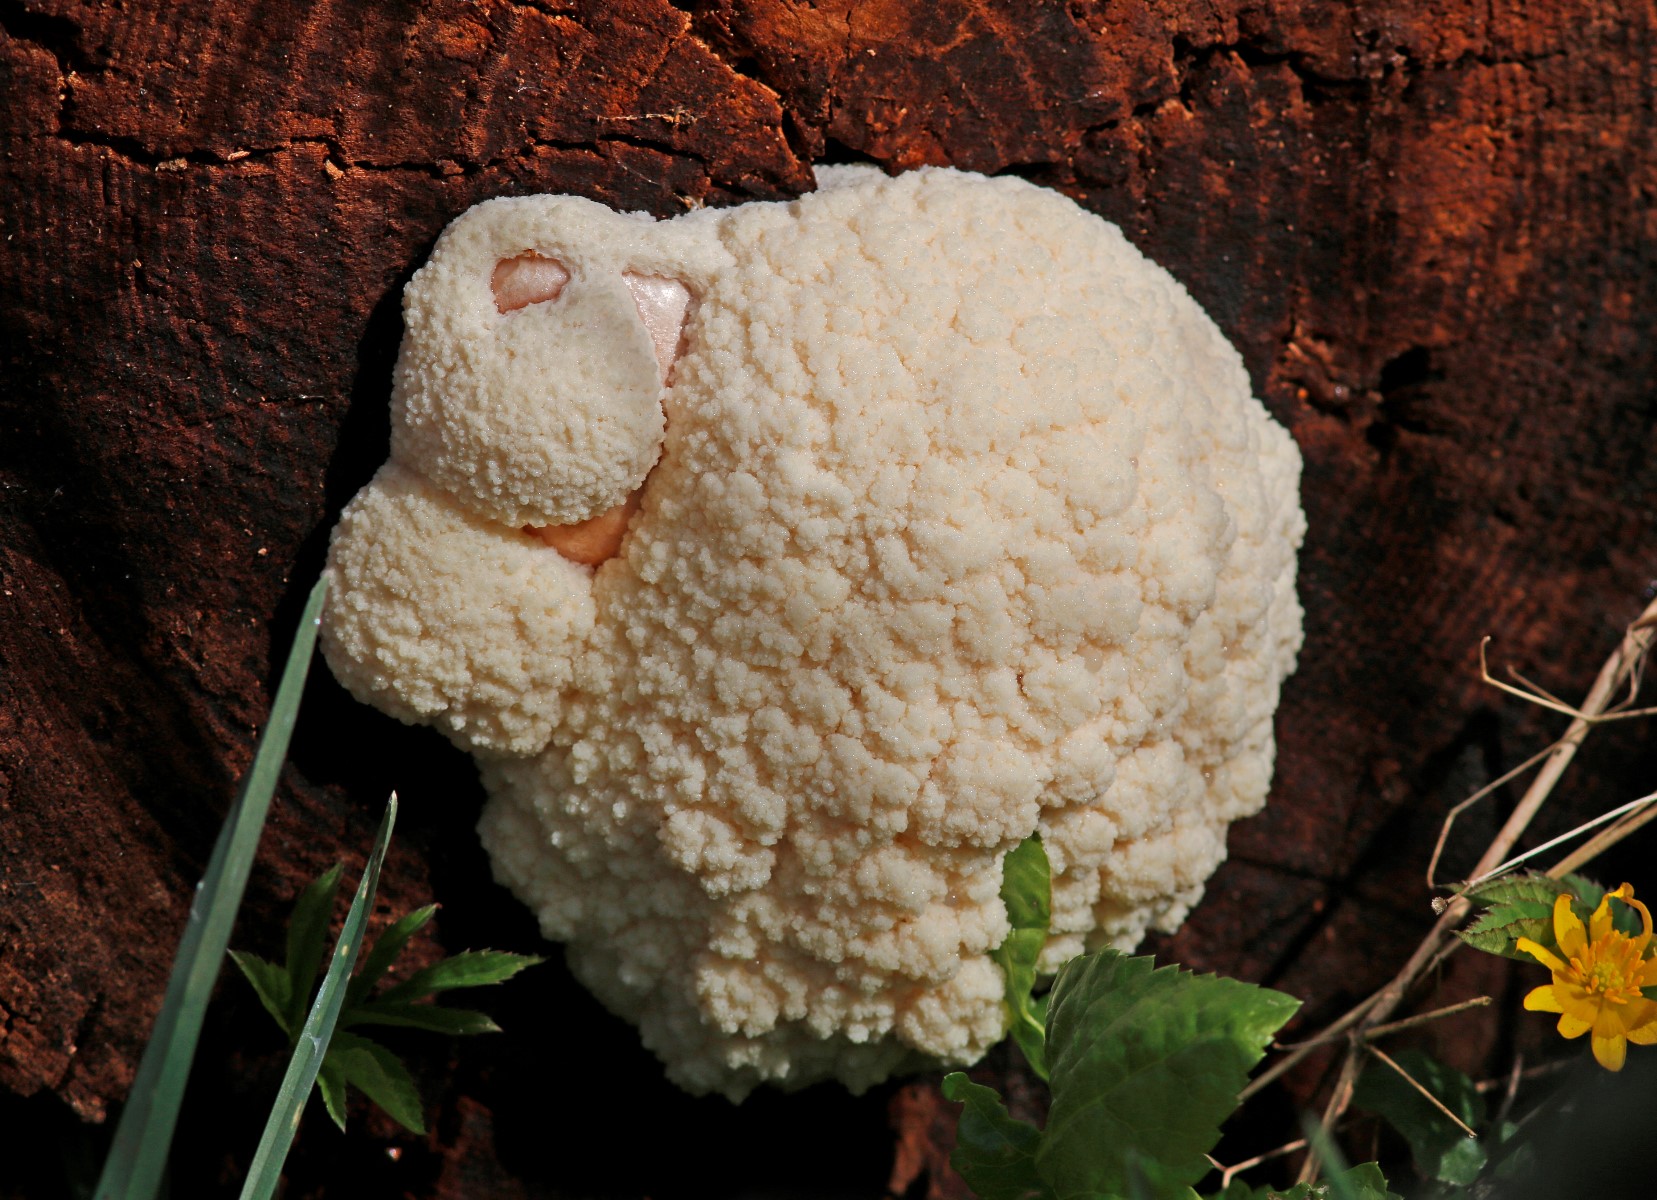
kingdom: Protozoa
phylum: Mycetozoa
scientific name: Mycetozoa
